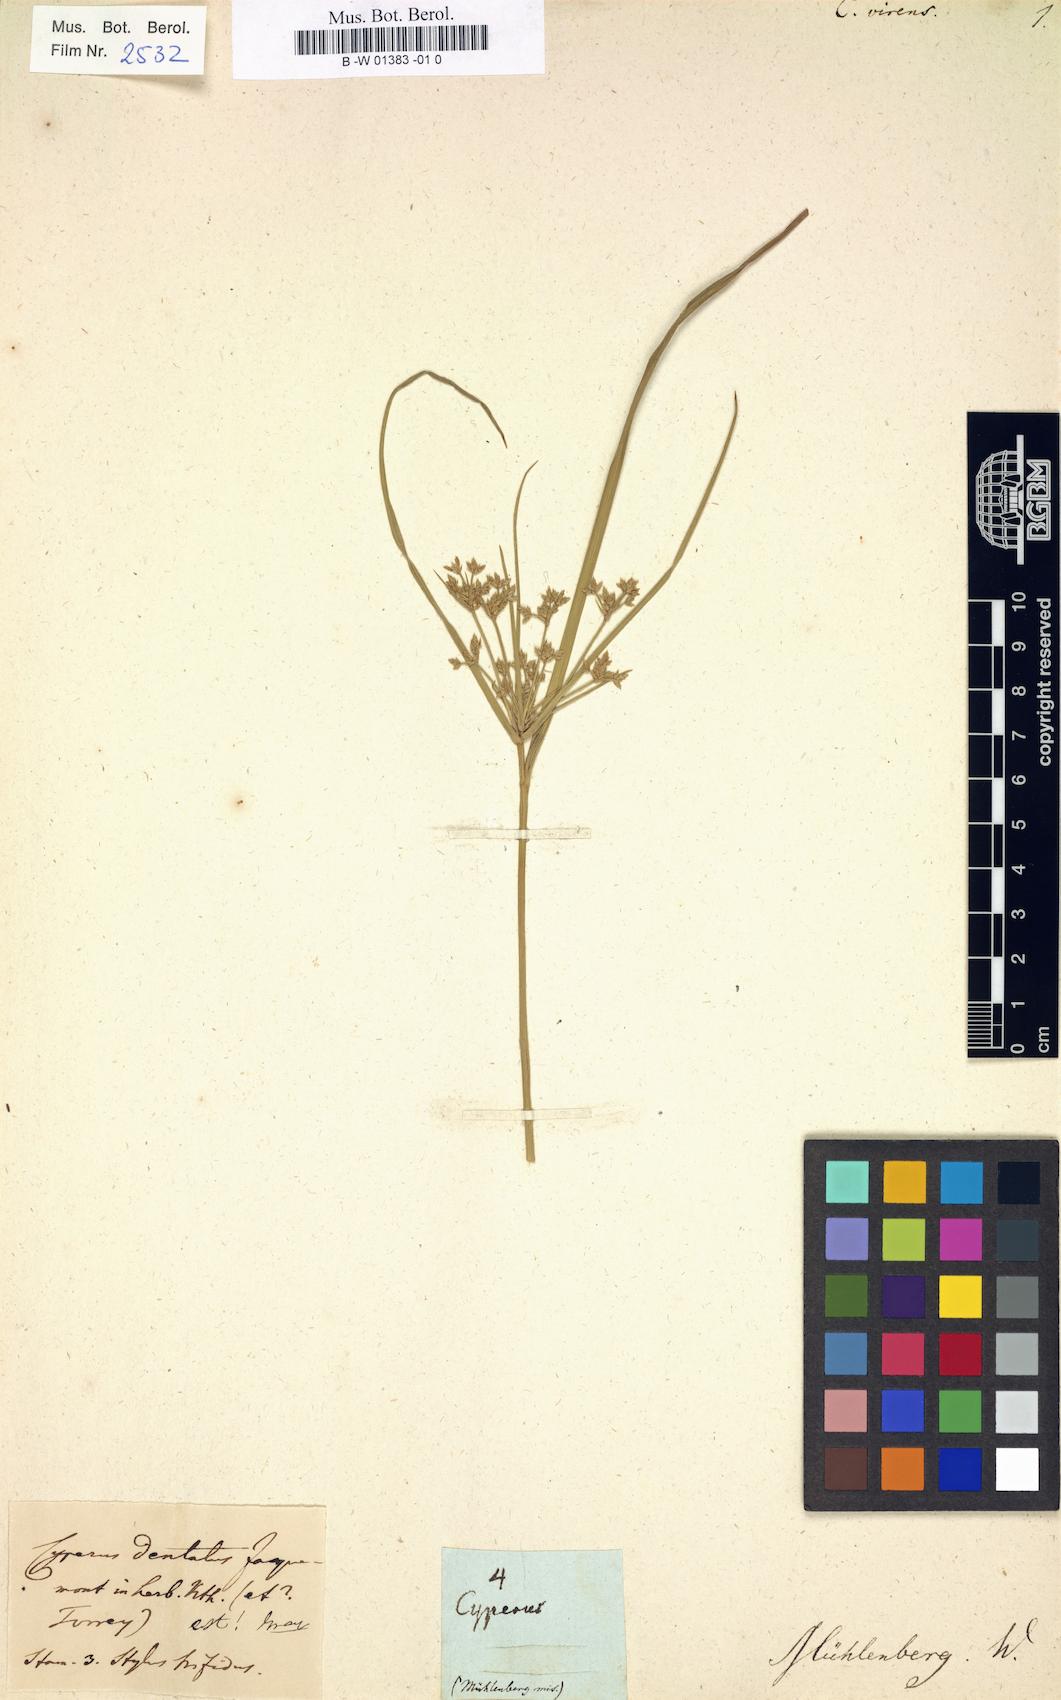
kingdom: Plantae
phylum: Tracheophyta
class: Liliopsida
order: Poales
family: Cyperaceae
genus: Cyperus
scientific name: Cyperus virens
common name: Green flatsedge
